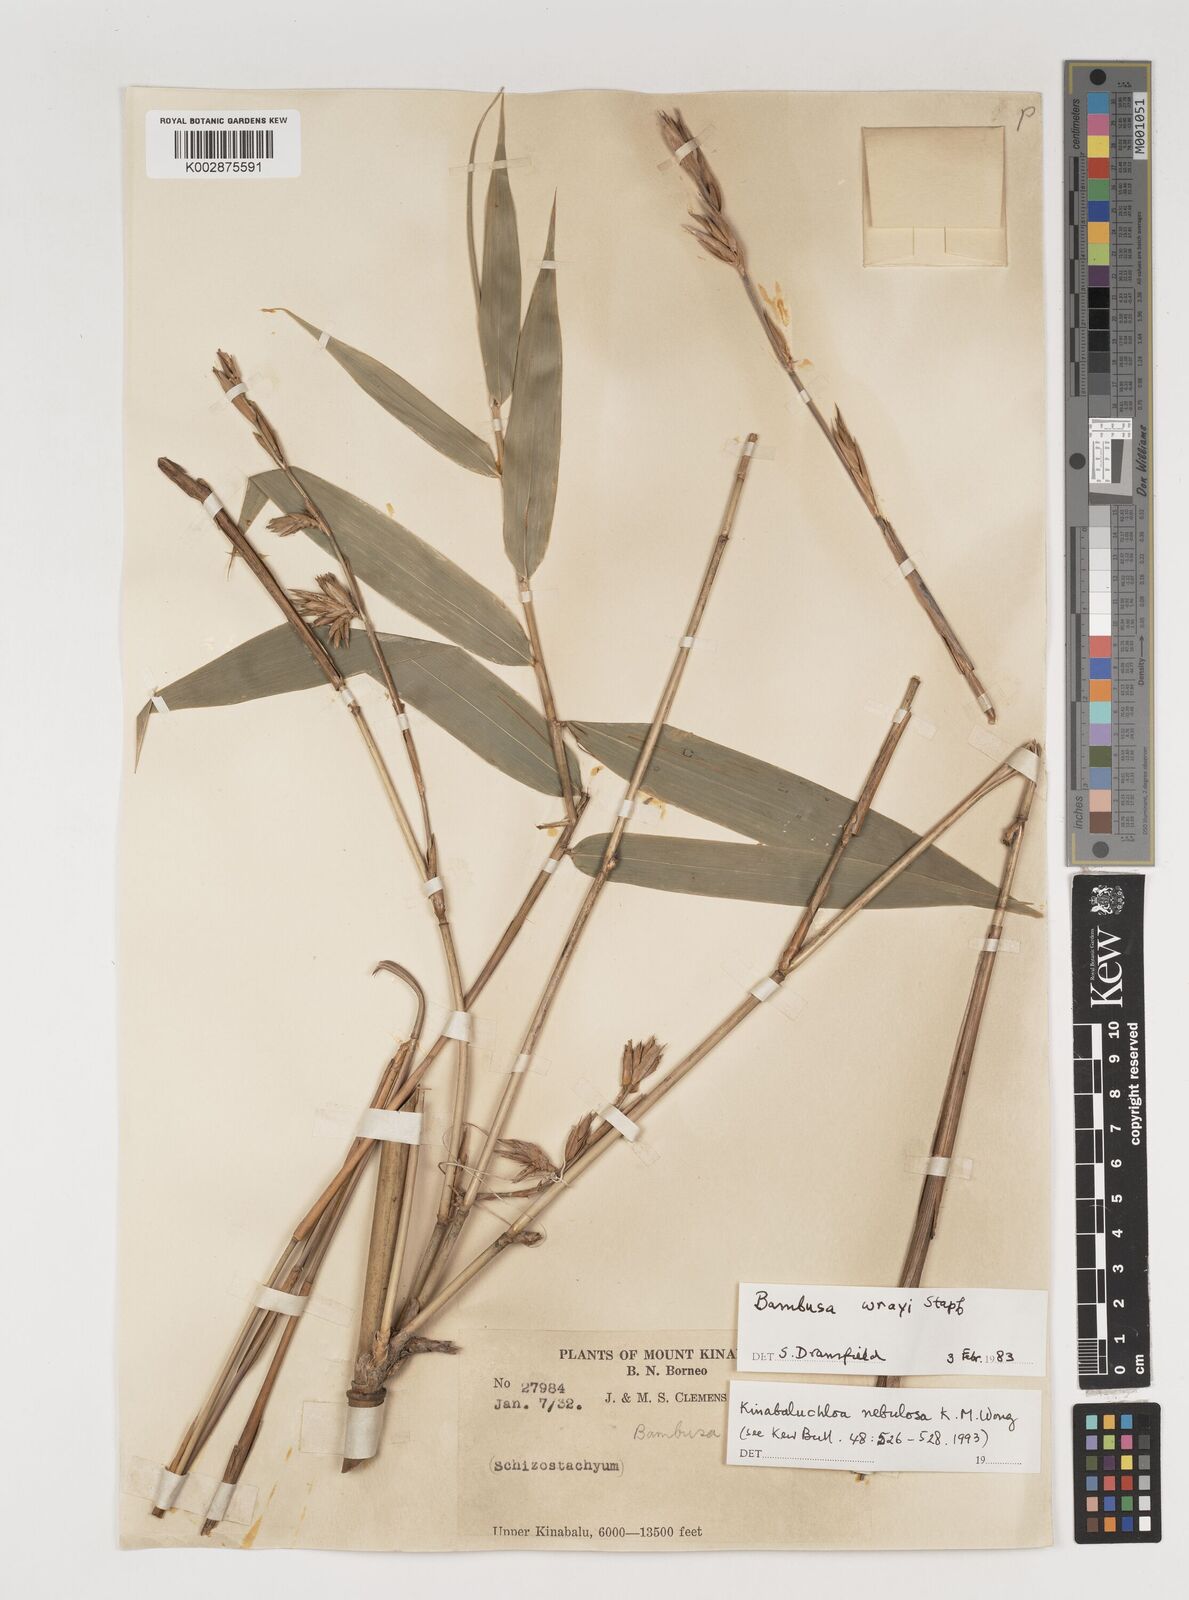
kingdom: Plantae
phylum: Tracheophyta
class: Liliopsida
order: Poales
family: Poaceae
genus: Kinabaluchloa
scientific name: Kinabaluchloa wrayi
